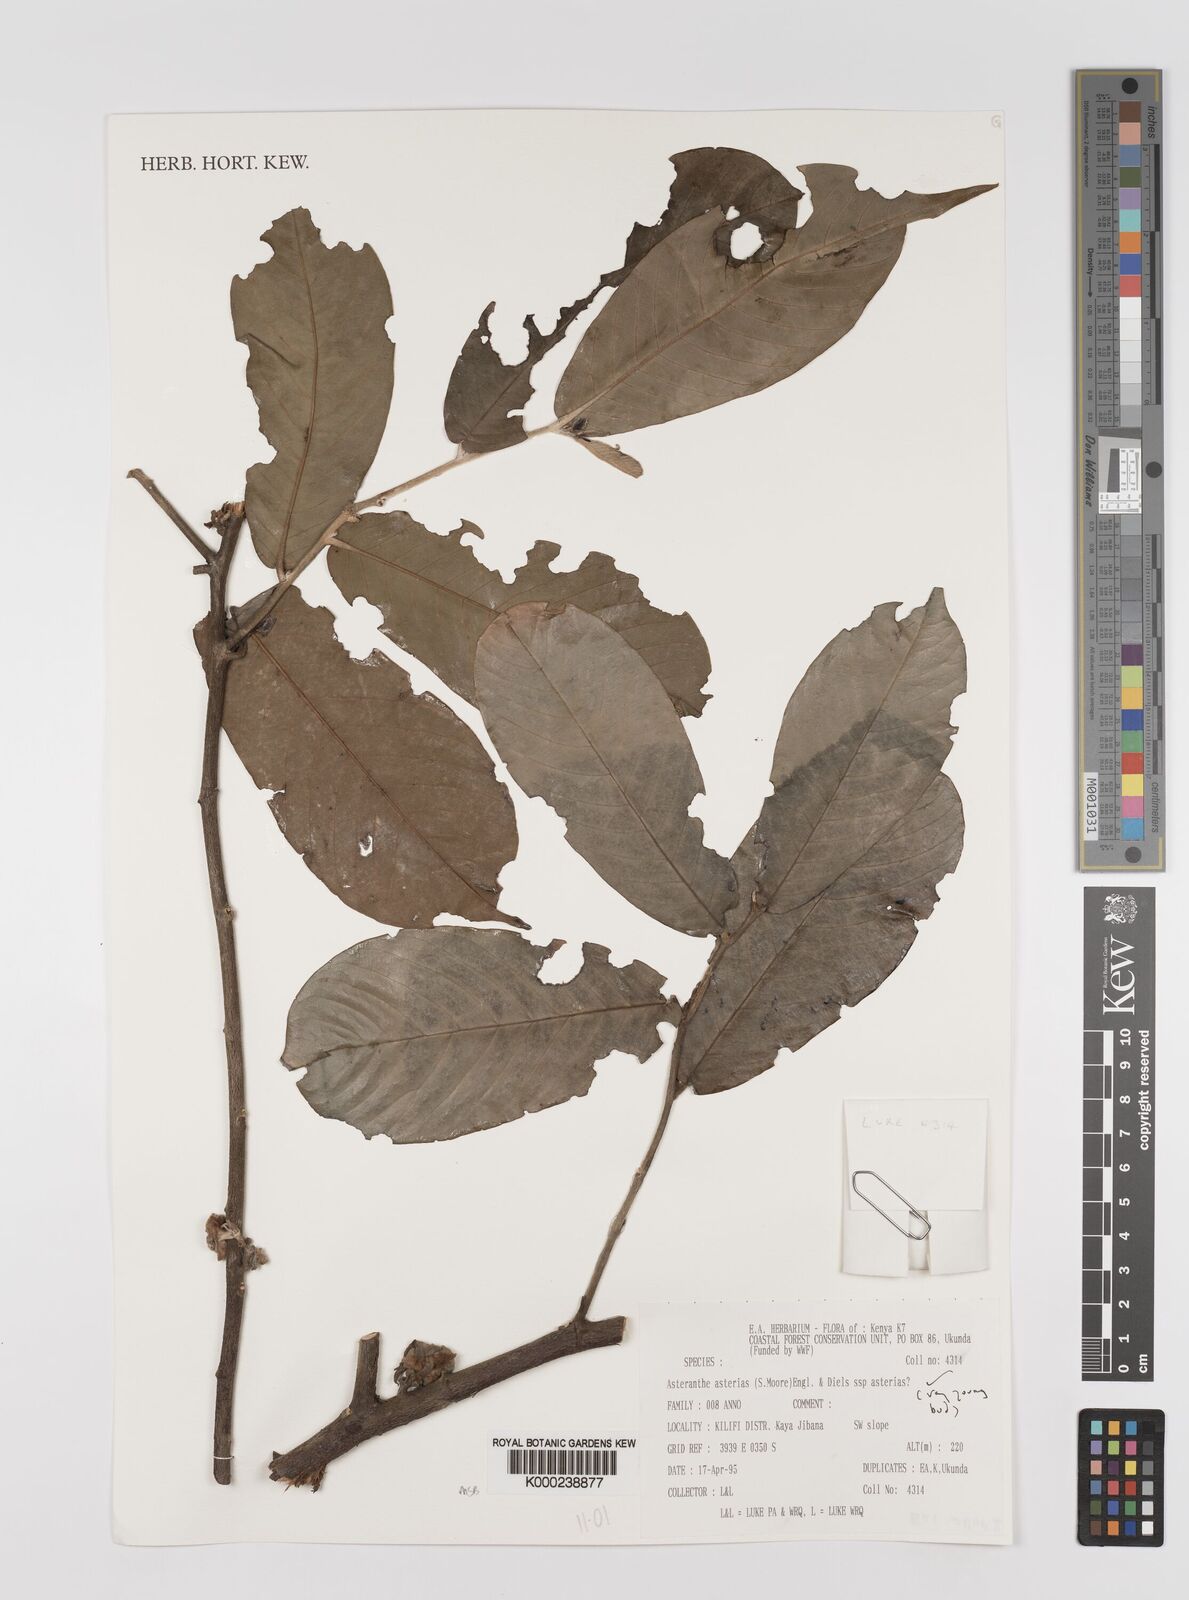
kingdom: Plantae
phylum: Tracheophyta
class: Magnoliopsida
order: Magnoliales
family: Annonaceae
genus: Asteranthe
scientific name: Asteranthe asterias
